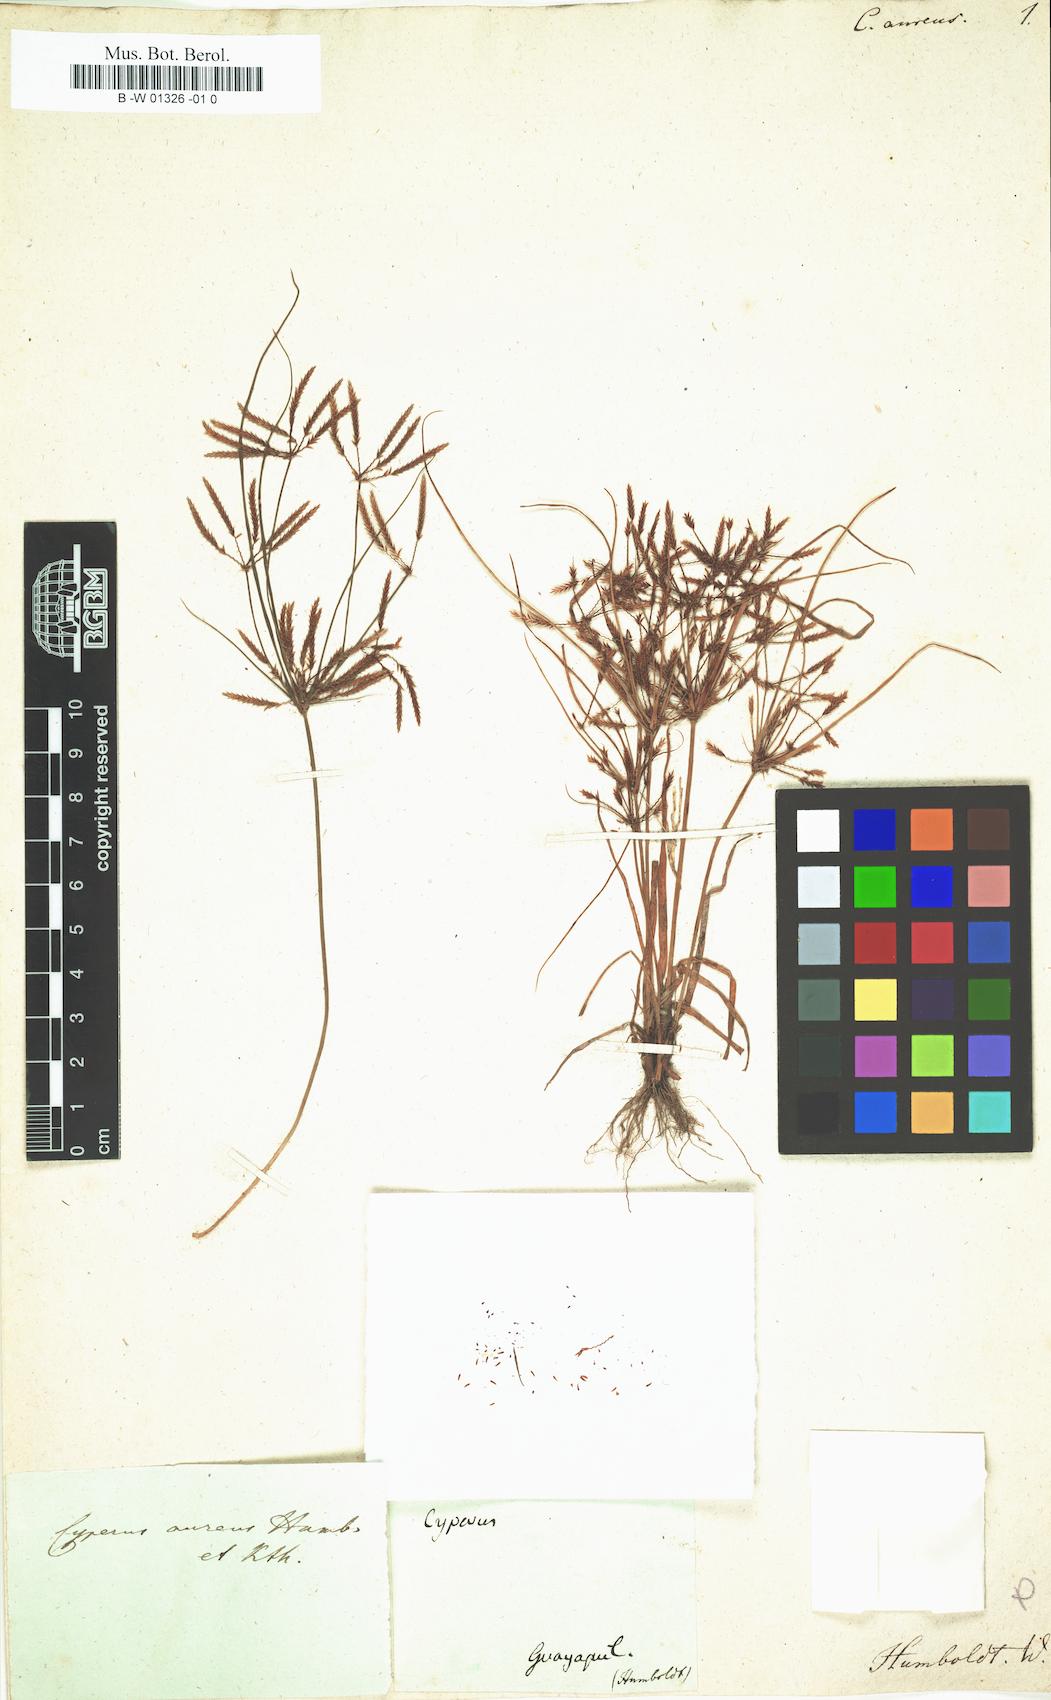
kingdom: Plantae
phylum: Tracheophyta
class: Liliopsida
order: Poales
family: Cyperaceae
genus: Cyperus
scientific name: Cyperus amabilis
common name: Foothill flat sedge
